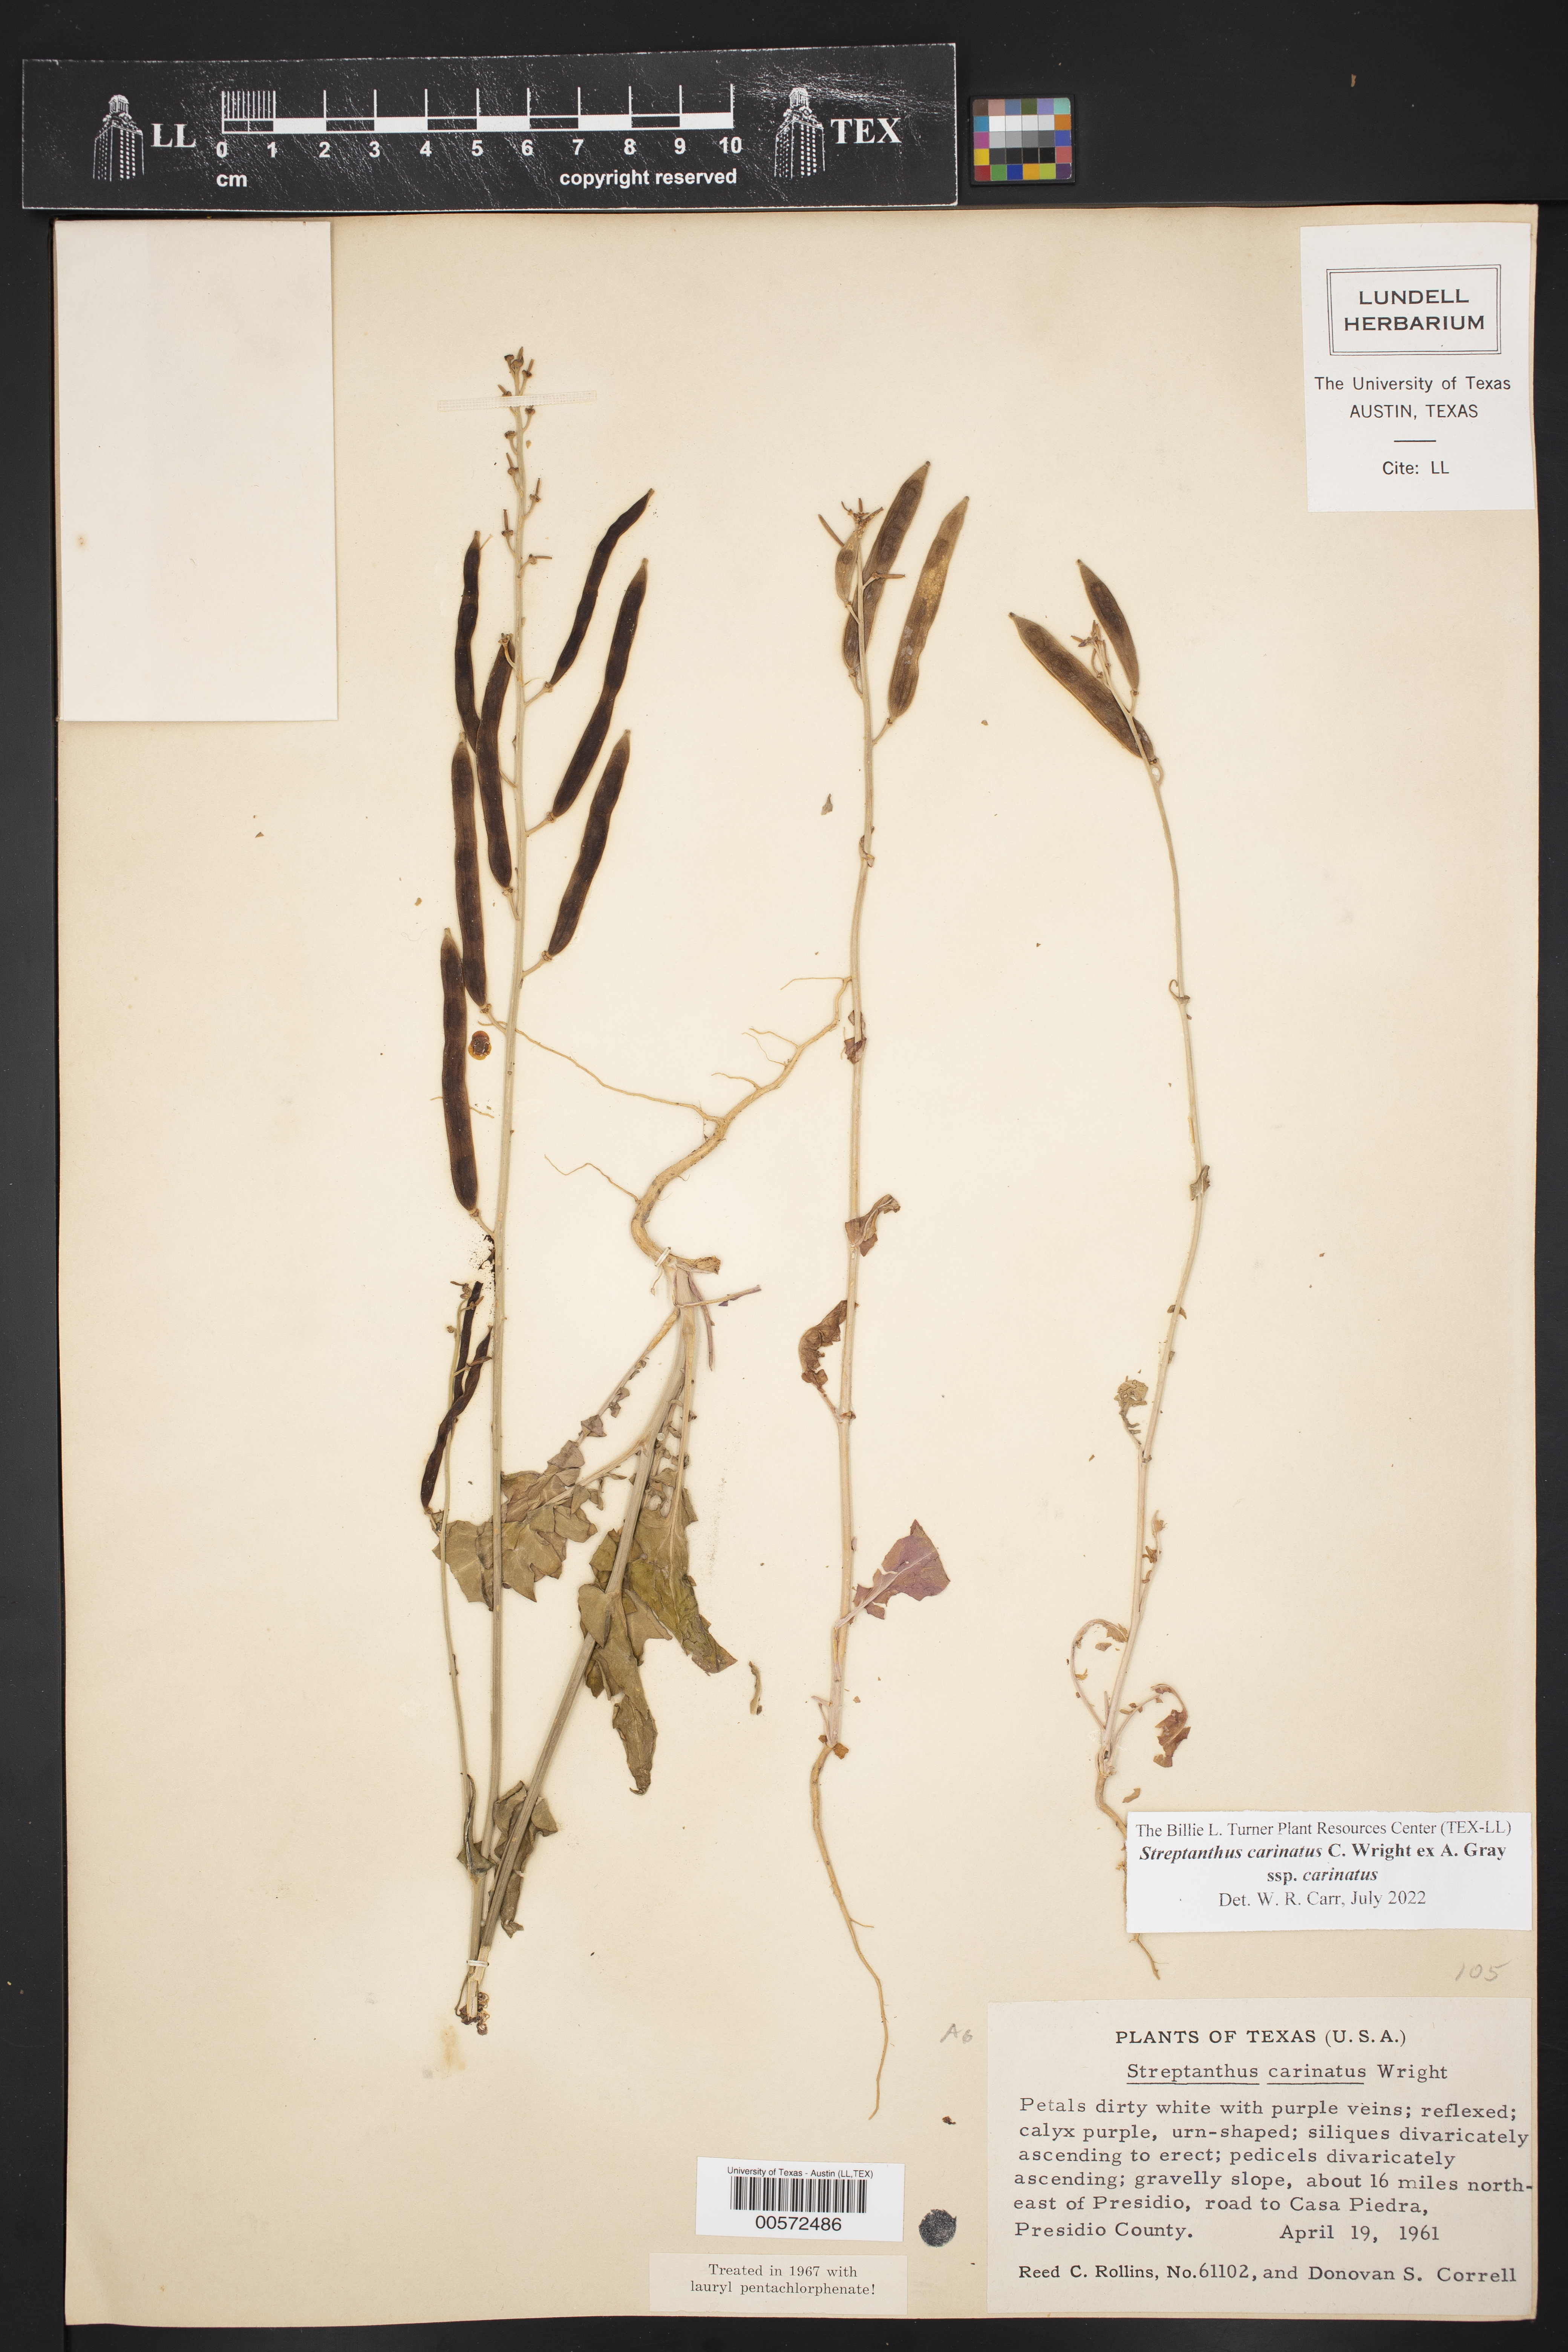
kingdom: Plantae
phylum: Tracheophyta
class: Magnoliopsida
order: Brassicales
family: Brassicaceae
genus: Streptanthus
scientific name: Streptanthus carinatus
